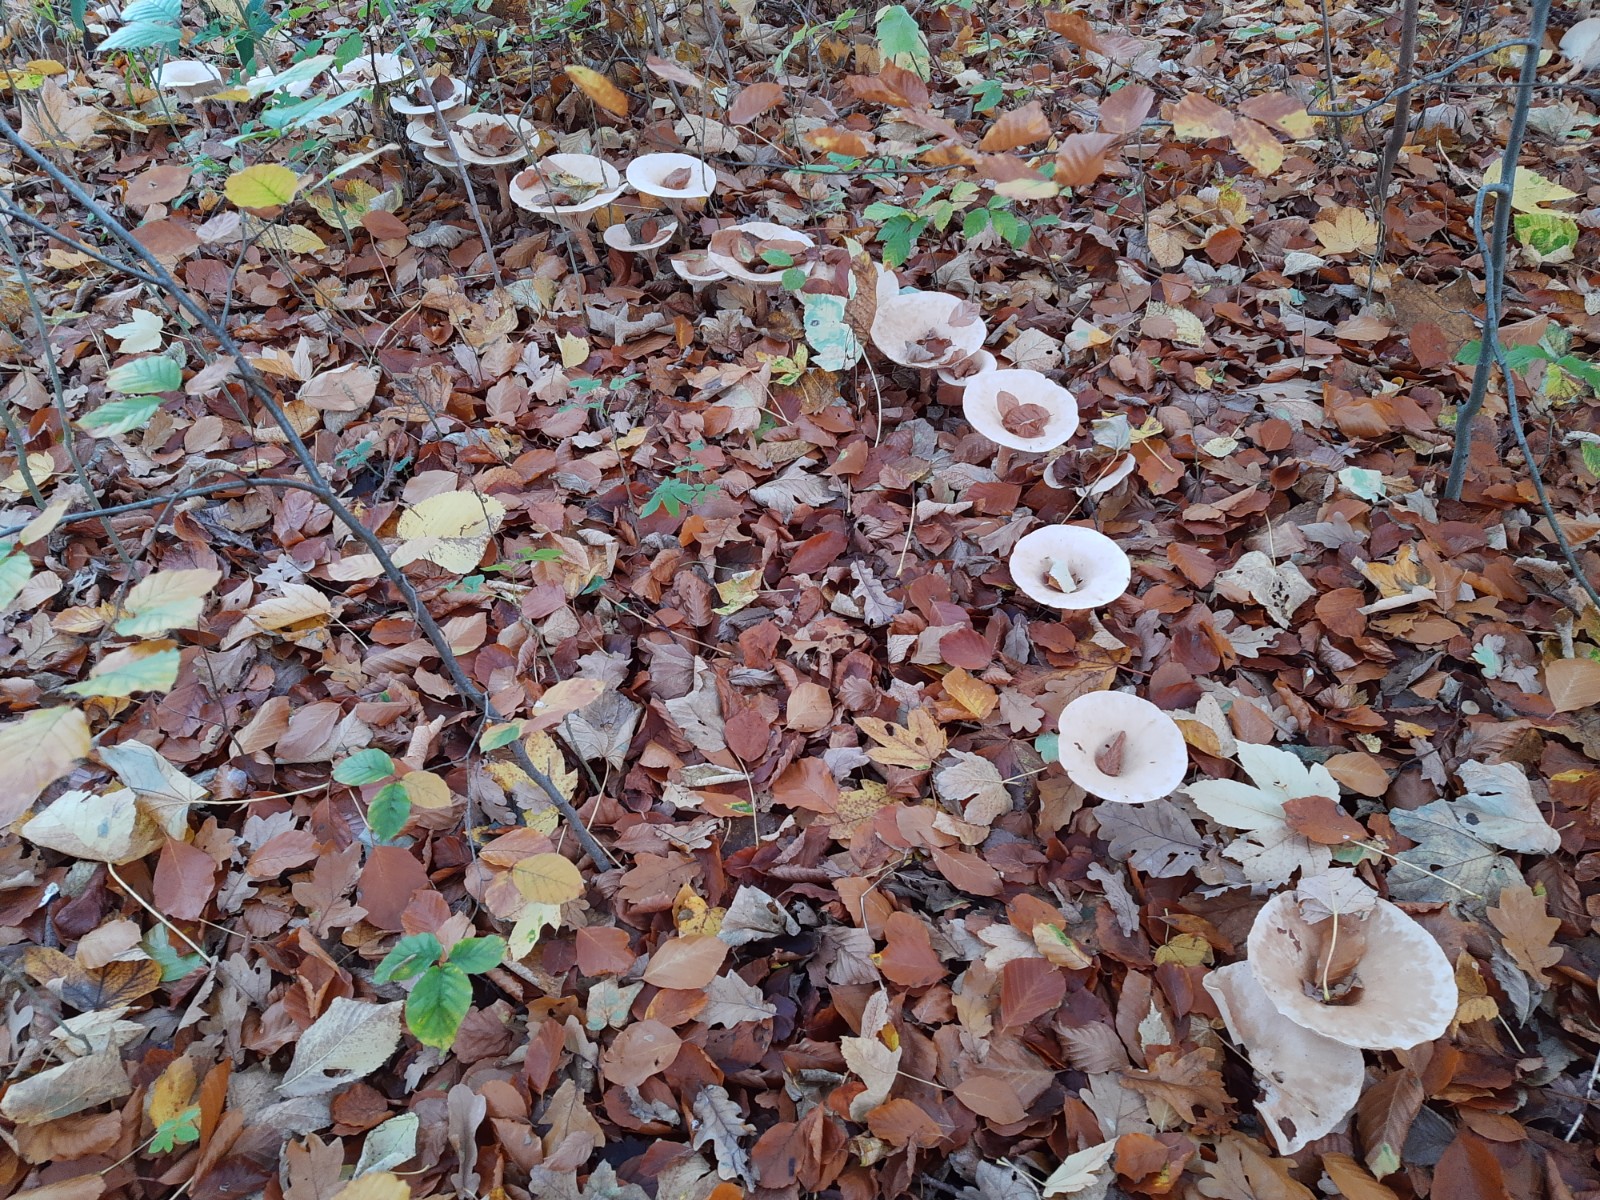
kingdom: Fungi
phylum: Basidiomycota
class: Agaricomycetes
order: Agaricales
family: Tricholomataceae
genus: Infundibulicybe
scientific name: Infundibulicybe geotropa
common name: stor tragthat
